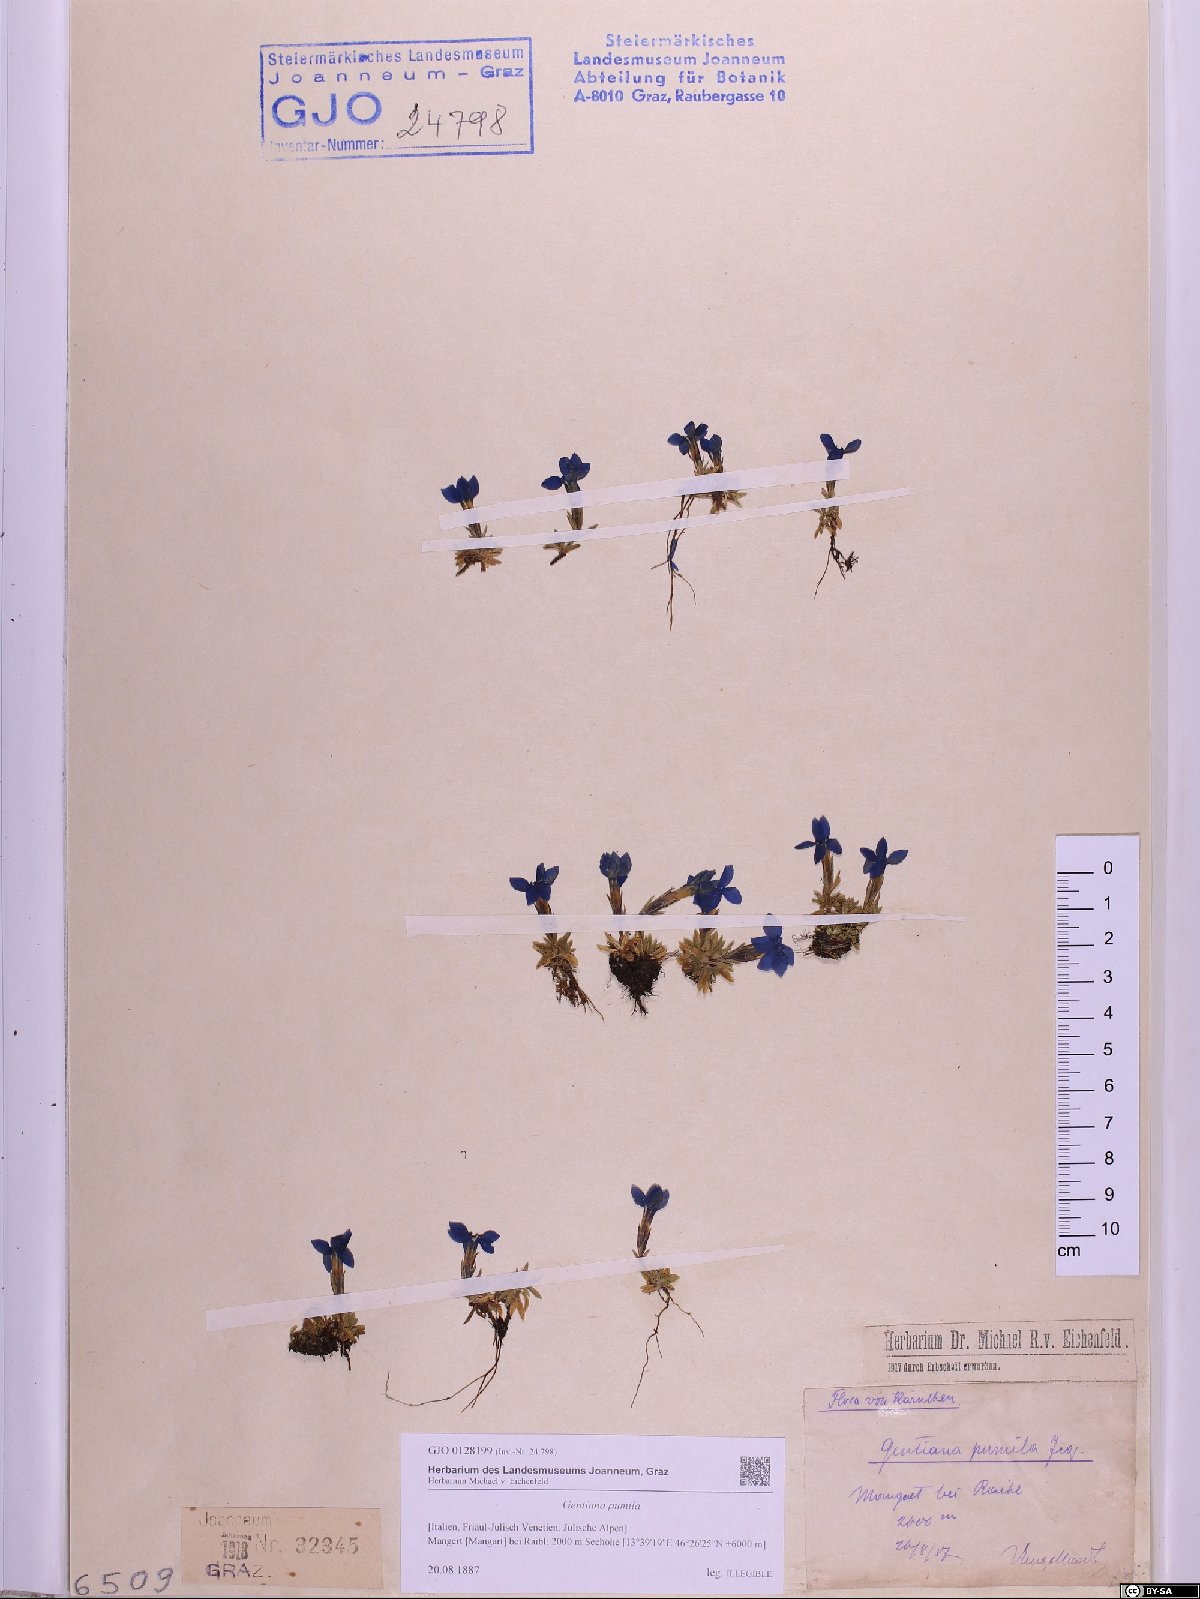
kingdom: Plantae
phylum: Tracheophyta
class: Magnoliopsida
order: Gentianales
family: Gentianaceae
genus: Gentiana
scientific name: Gentiana pumila
